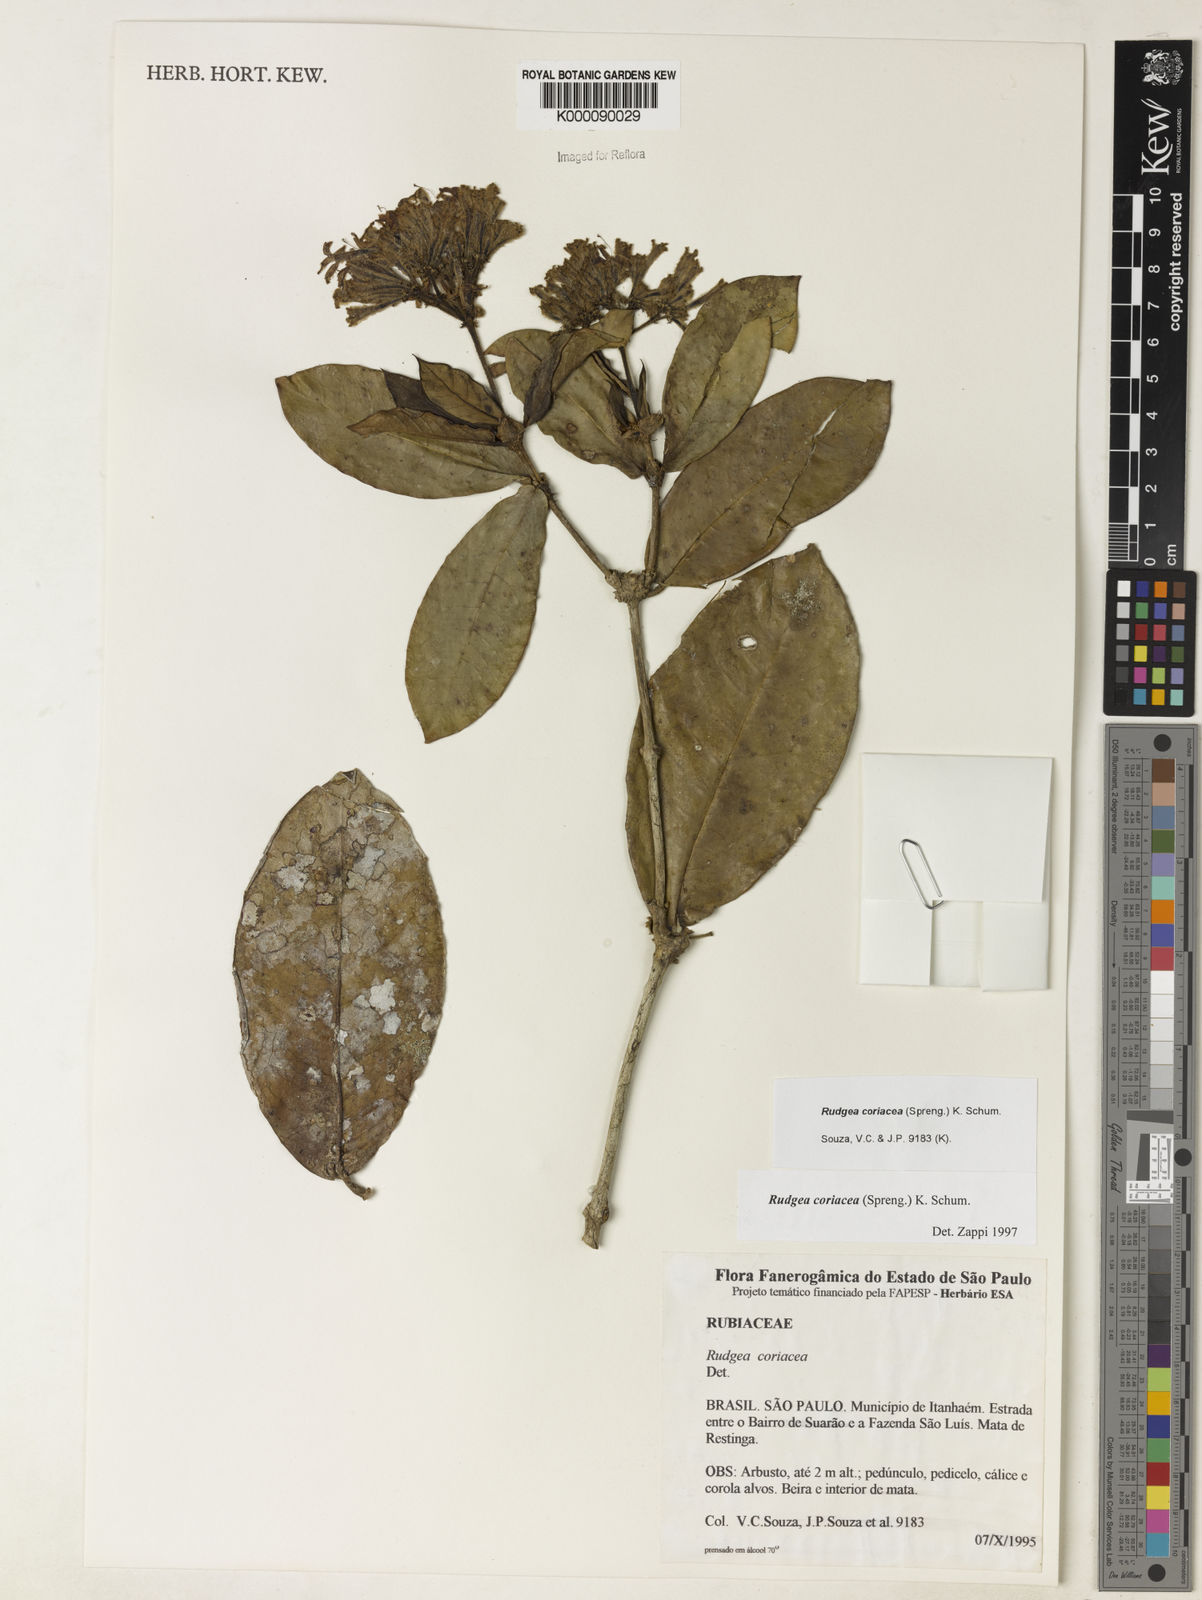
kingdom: Plantae
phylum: Tracheophyta
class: Magnoliopsida
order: Gentianales
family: Rubiaceae
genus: Rudgea
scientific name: Rudgea coriacea
